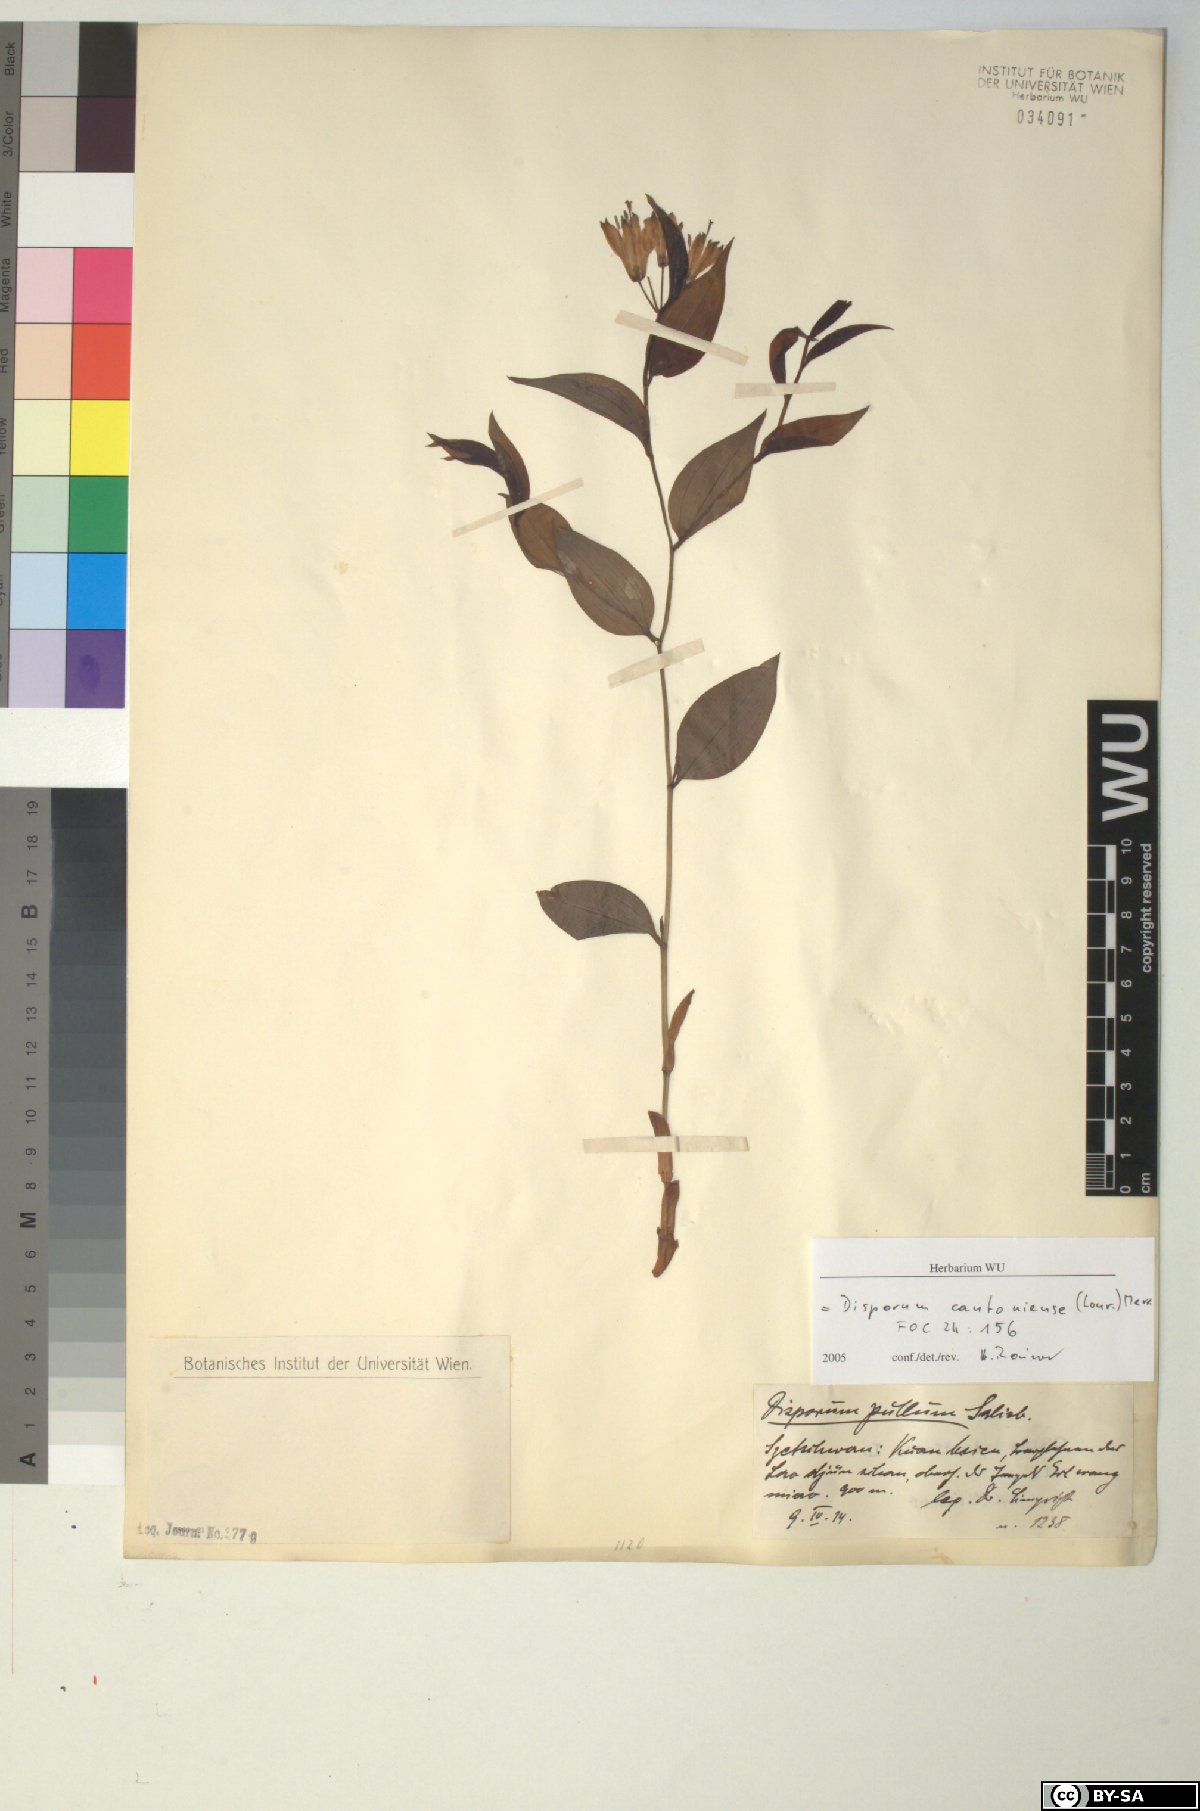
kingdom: Plantae
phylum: Tracheophyta
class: Liliopsida
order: Liliales
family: Colchicaceae
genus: Disporum
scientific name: Disporum cantoniense
